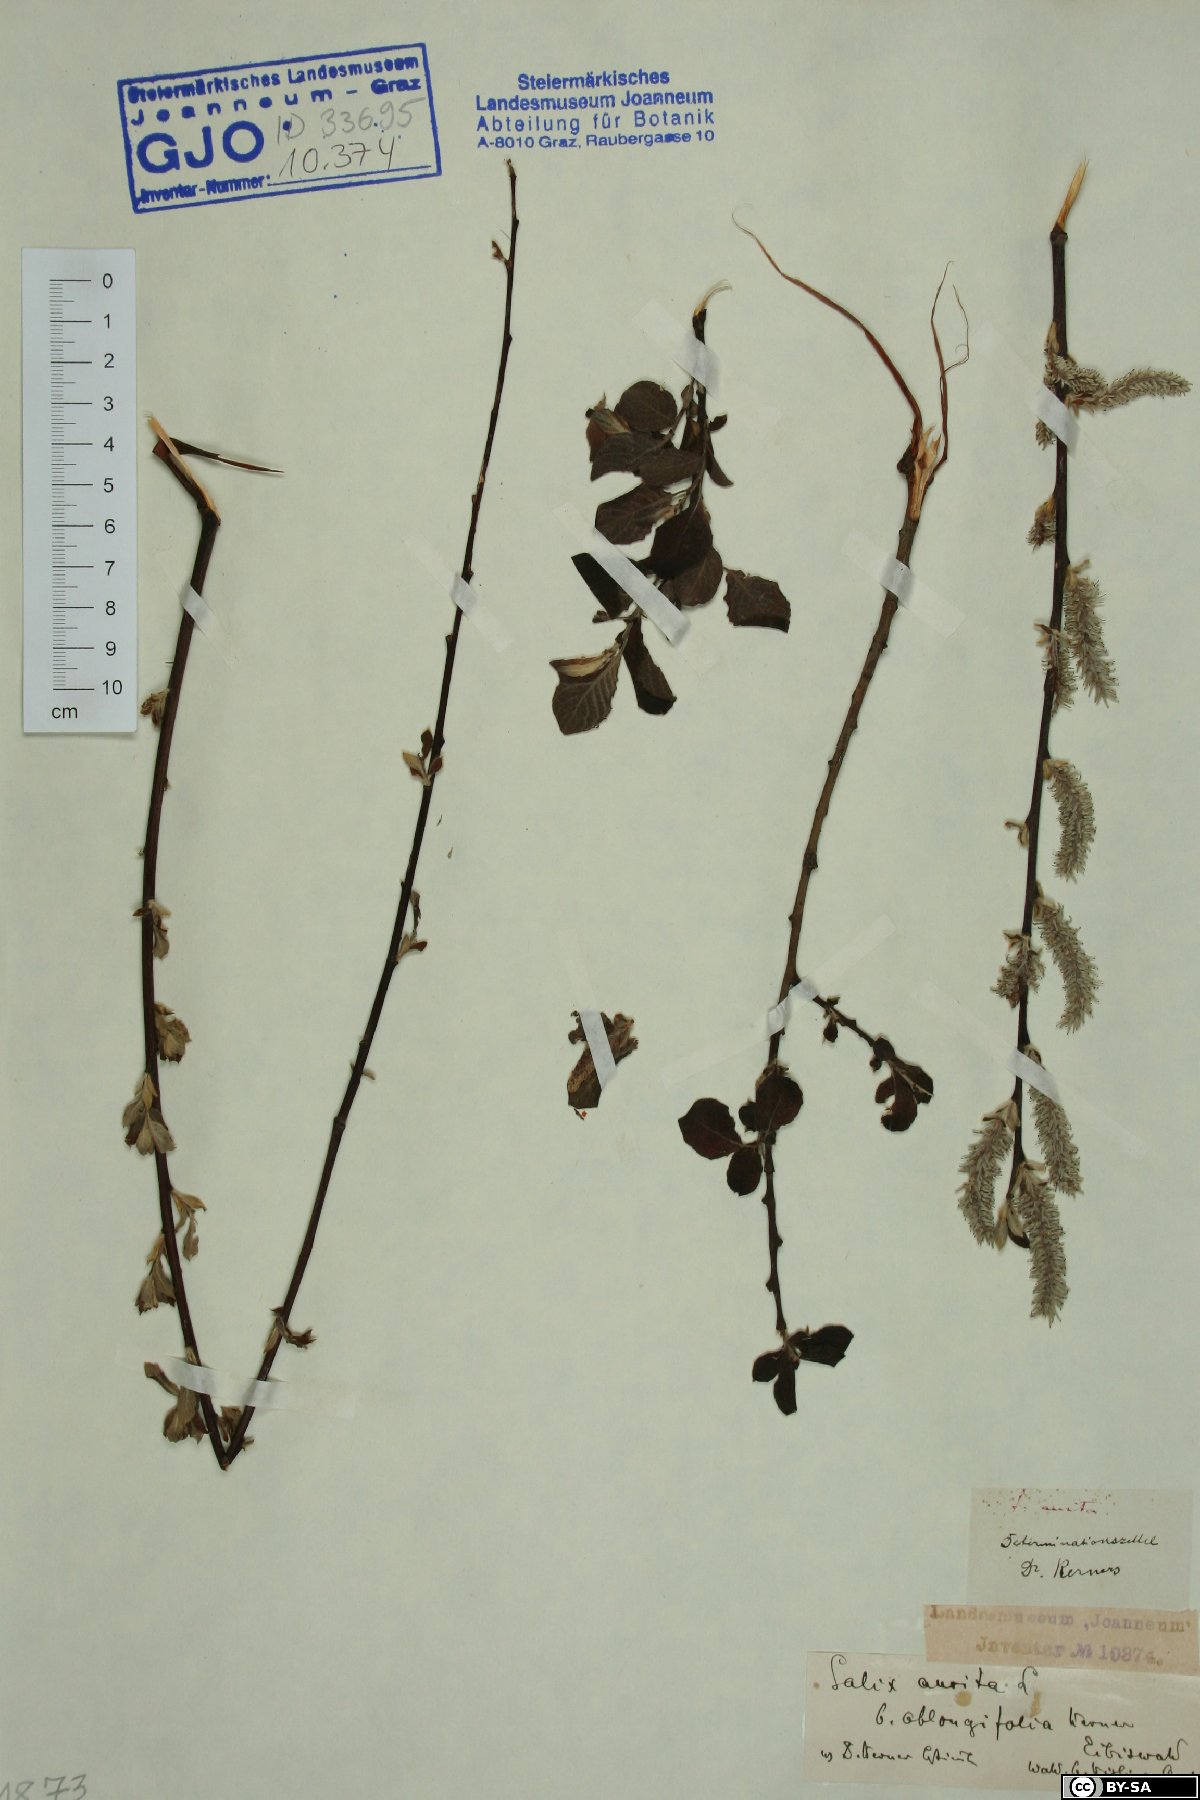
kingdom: Plantae
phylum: Tracheophyta
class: Magnoliopsida
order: Malpighiales
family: Salicaceae
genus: Salix
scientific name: Salix aurita
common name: Eared willow
